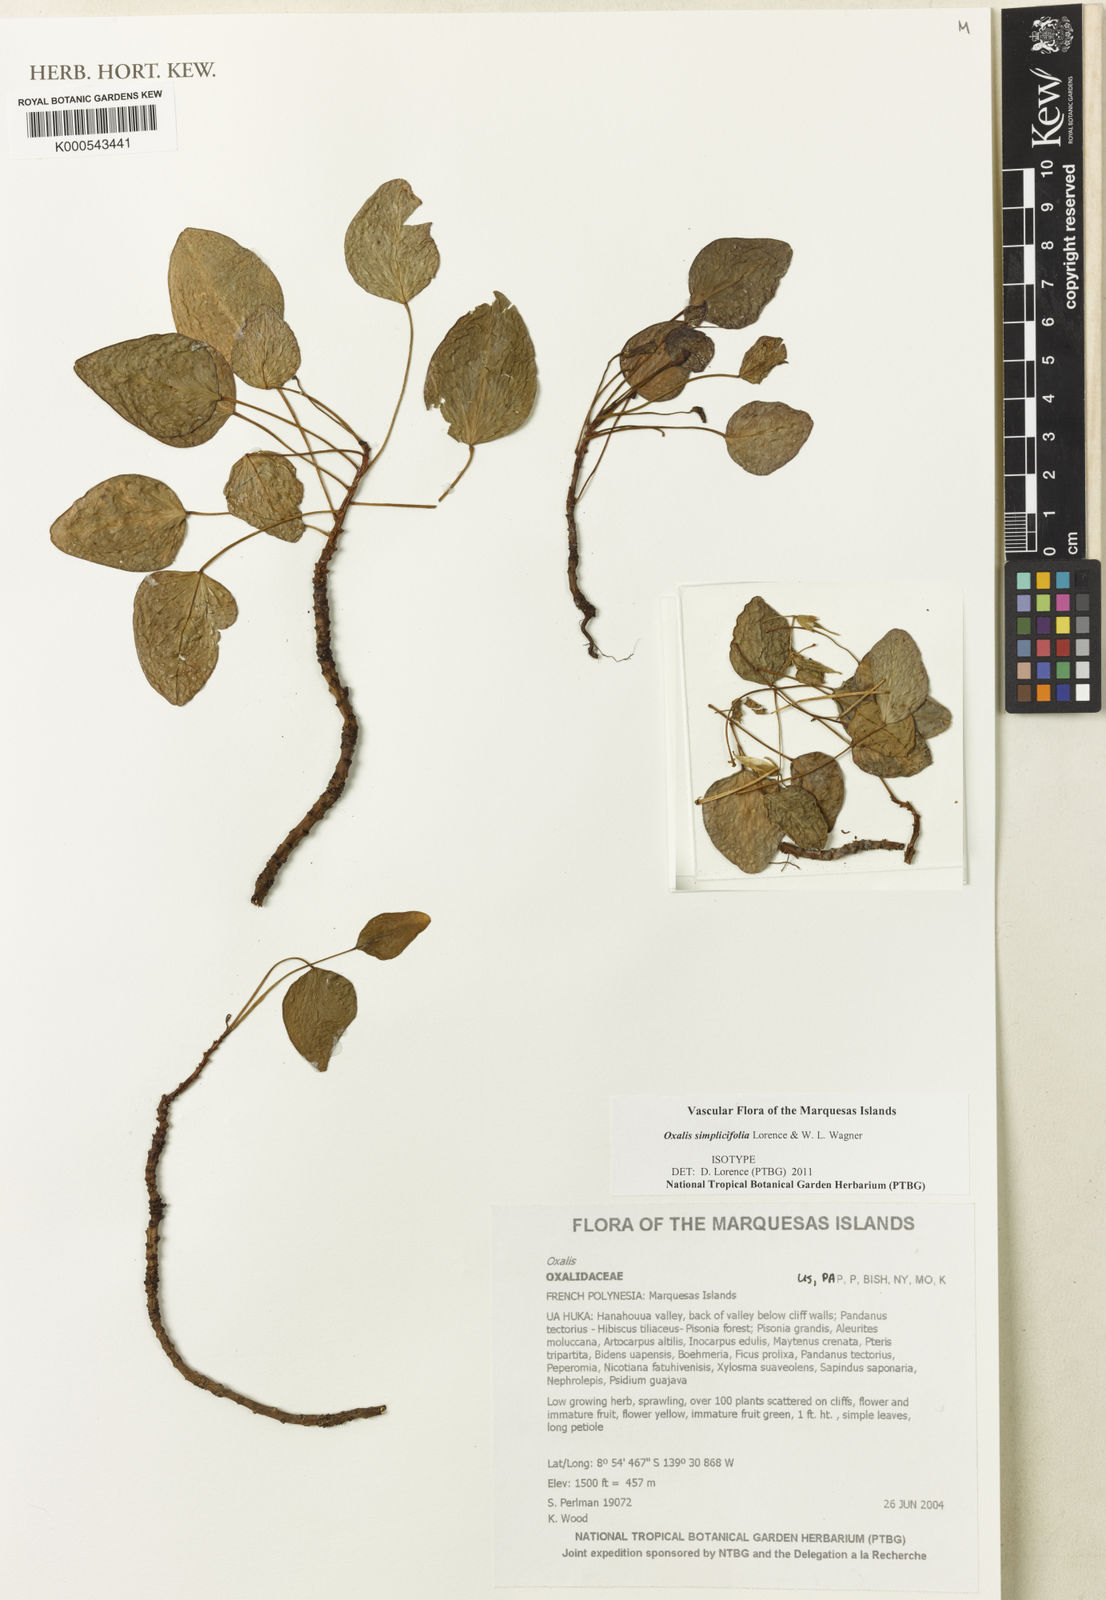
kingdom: Plantae
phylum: Tracheophyta
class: Magnoliopsida
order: Oxalidales
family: Oxalidaceae
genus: Oxalis
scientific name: Oxalis simplicifolia
